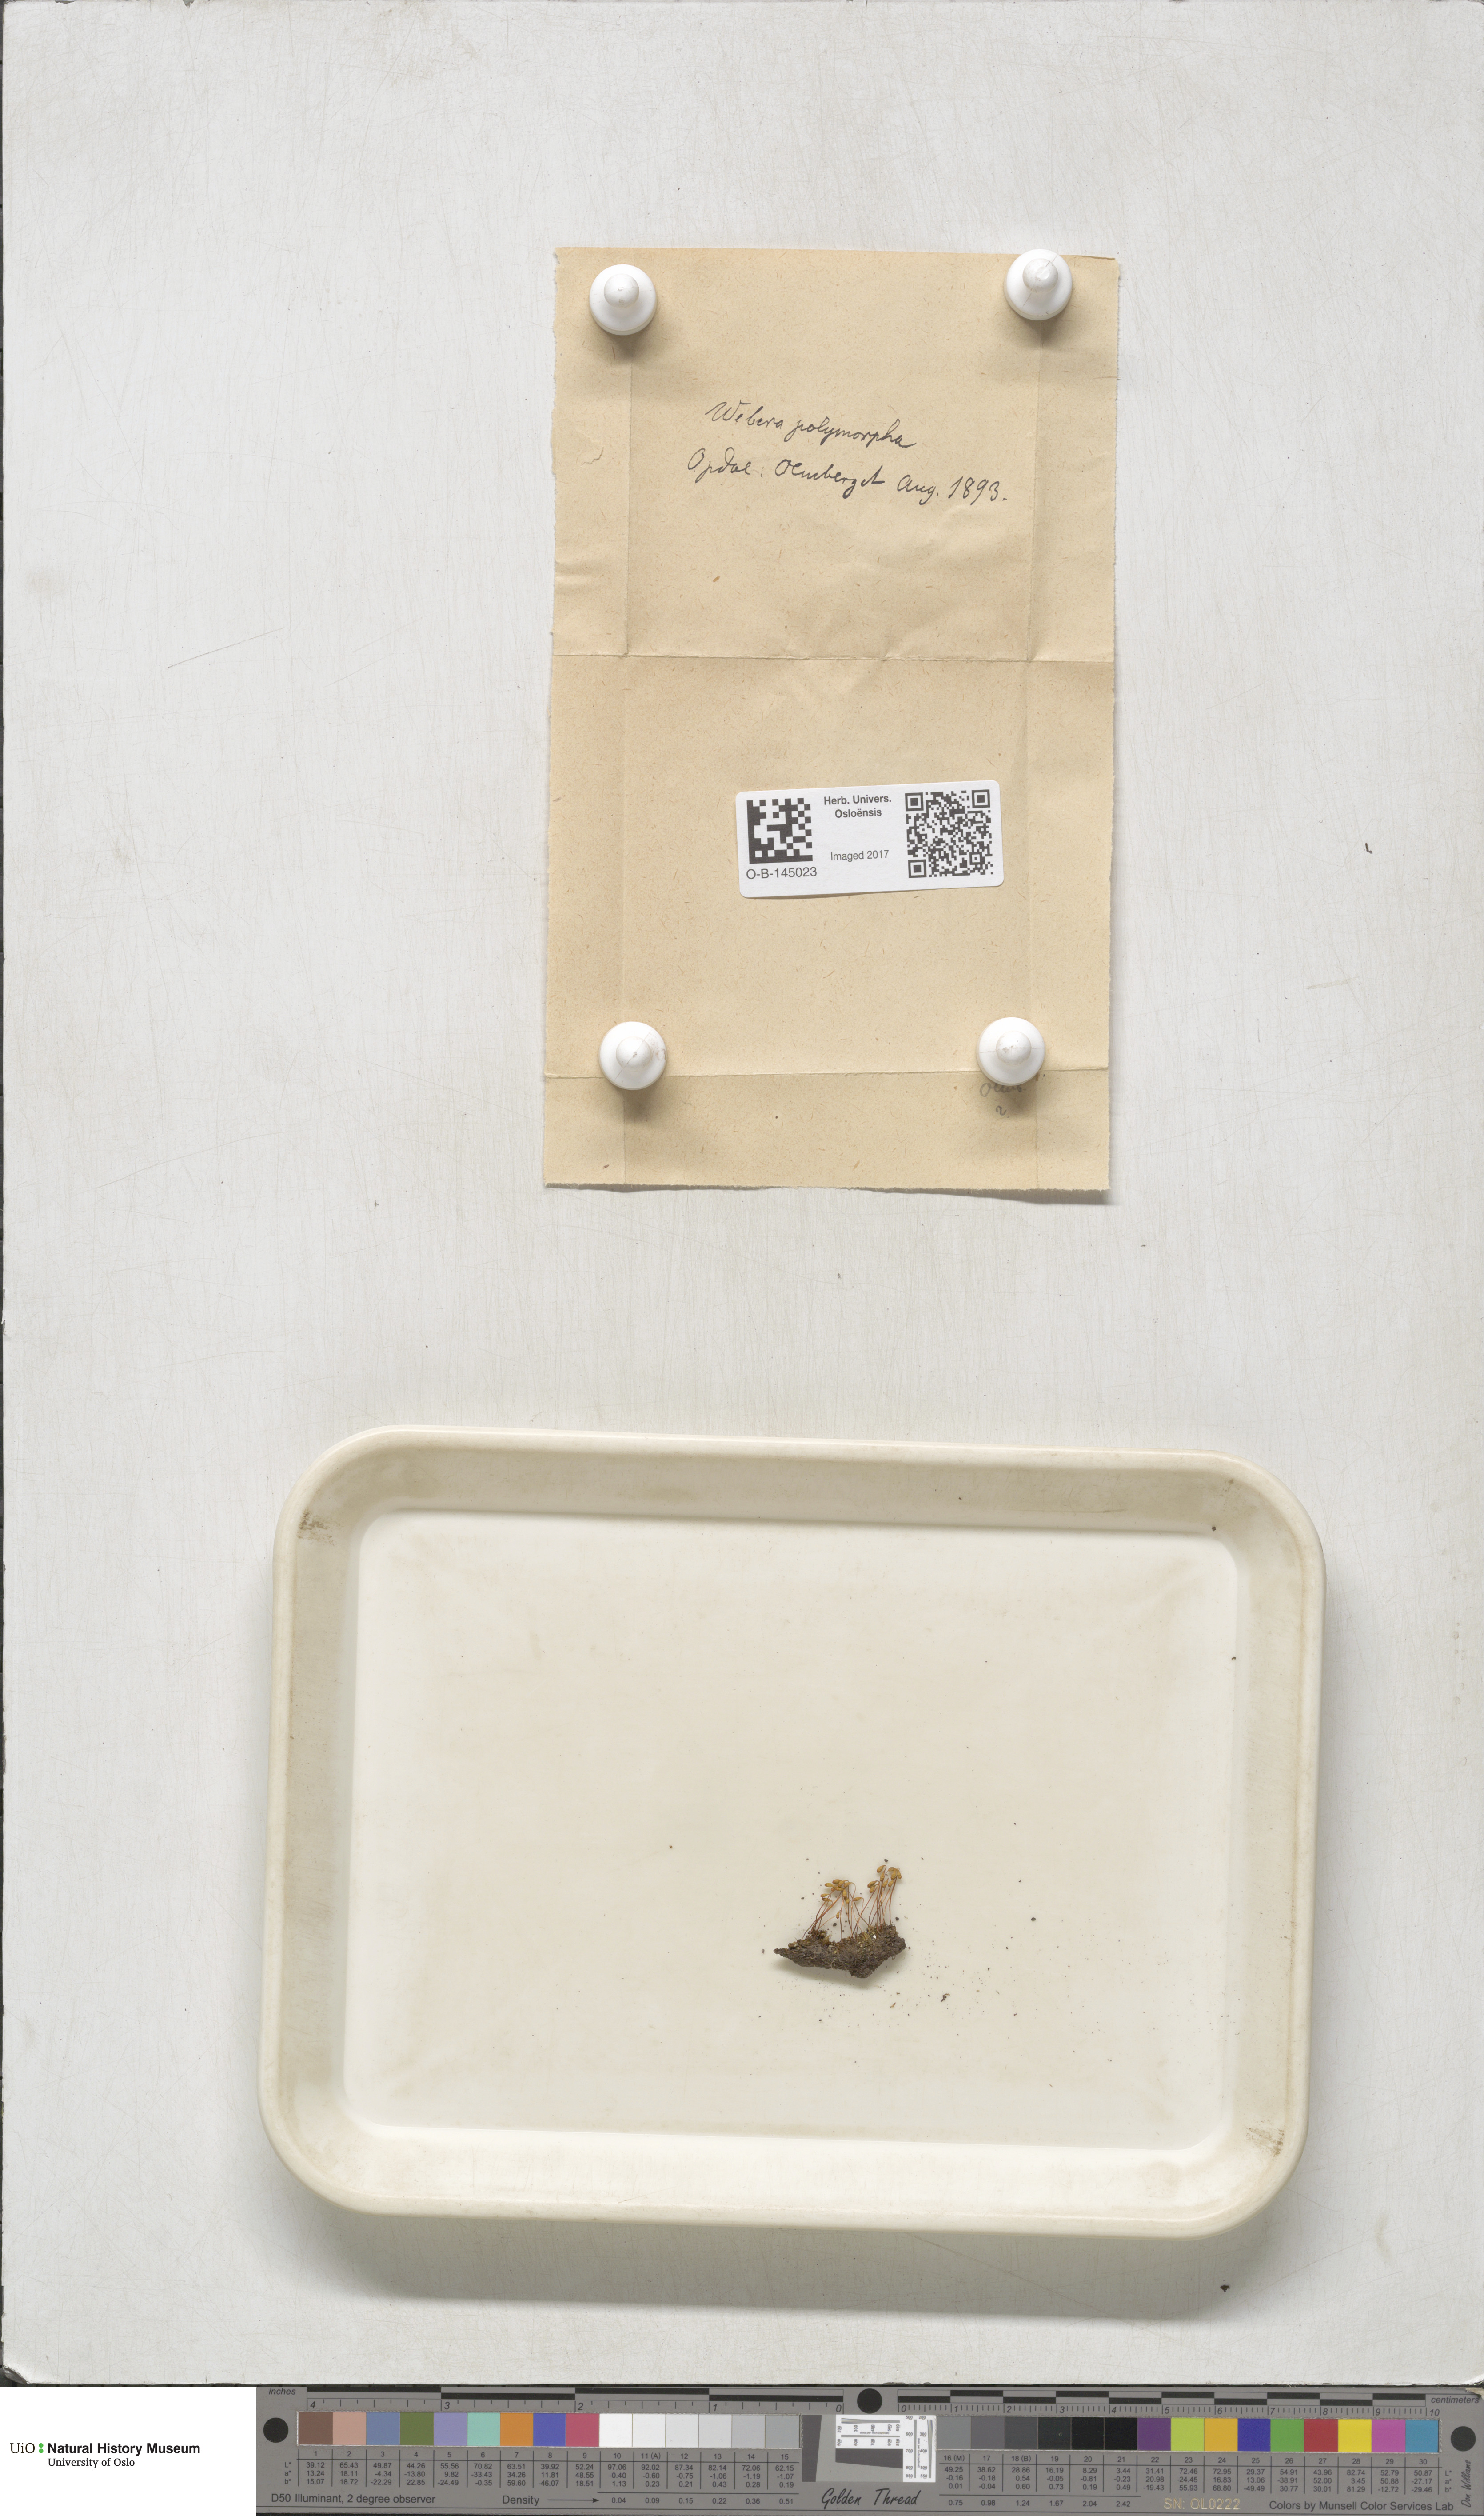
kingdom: Plantae
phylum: Bryophyta
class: Bryopsida
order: Bryales
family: Mniaceae
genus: Pohlia
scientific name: Pohlia elongata
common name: Long-fruited thread-moss
